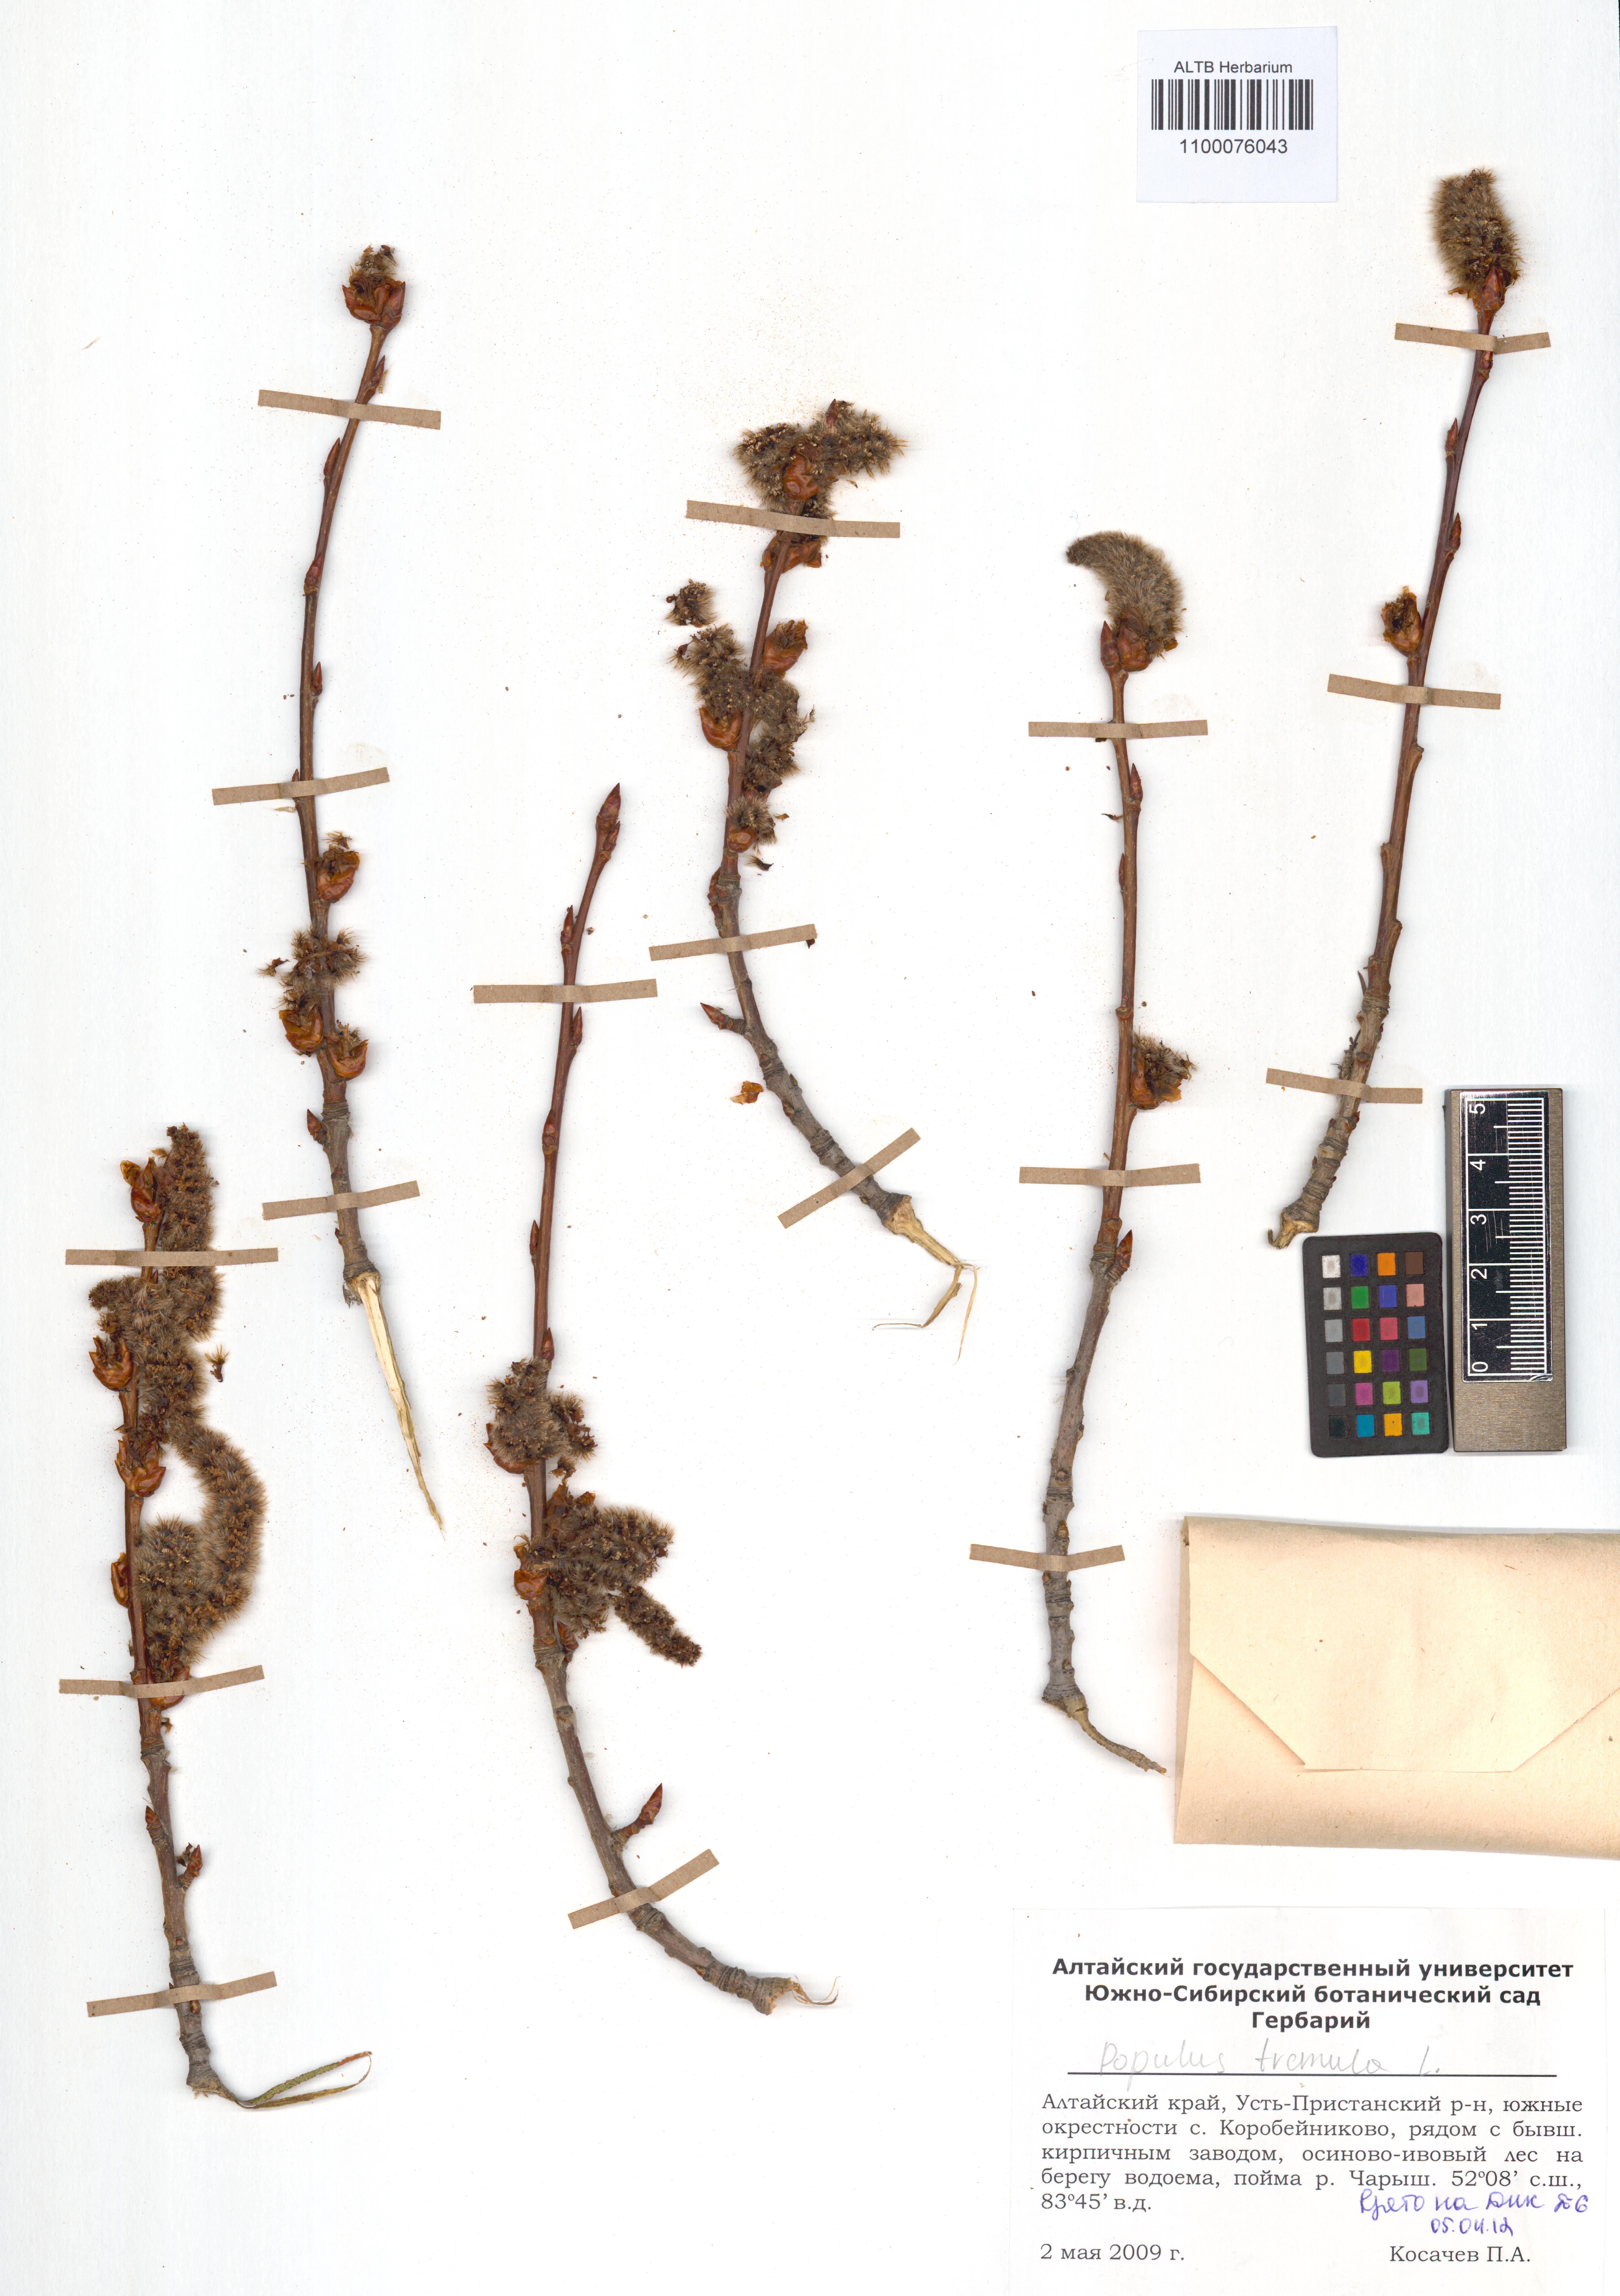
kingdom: Plantae
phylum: Tracheophyta
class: Magnoliopsida
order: Malpighiales
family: Salicaceae
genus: Populus
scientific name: Populus tremula
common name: European aspen
